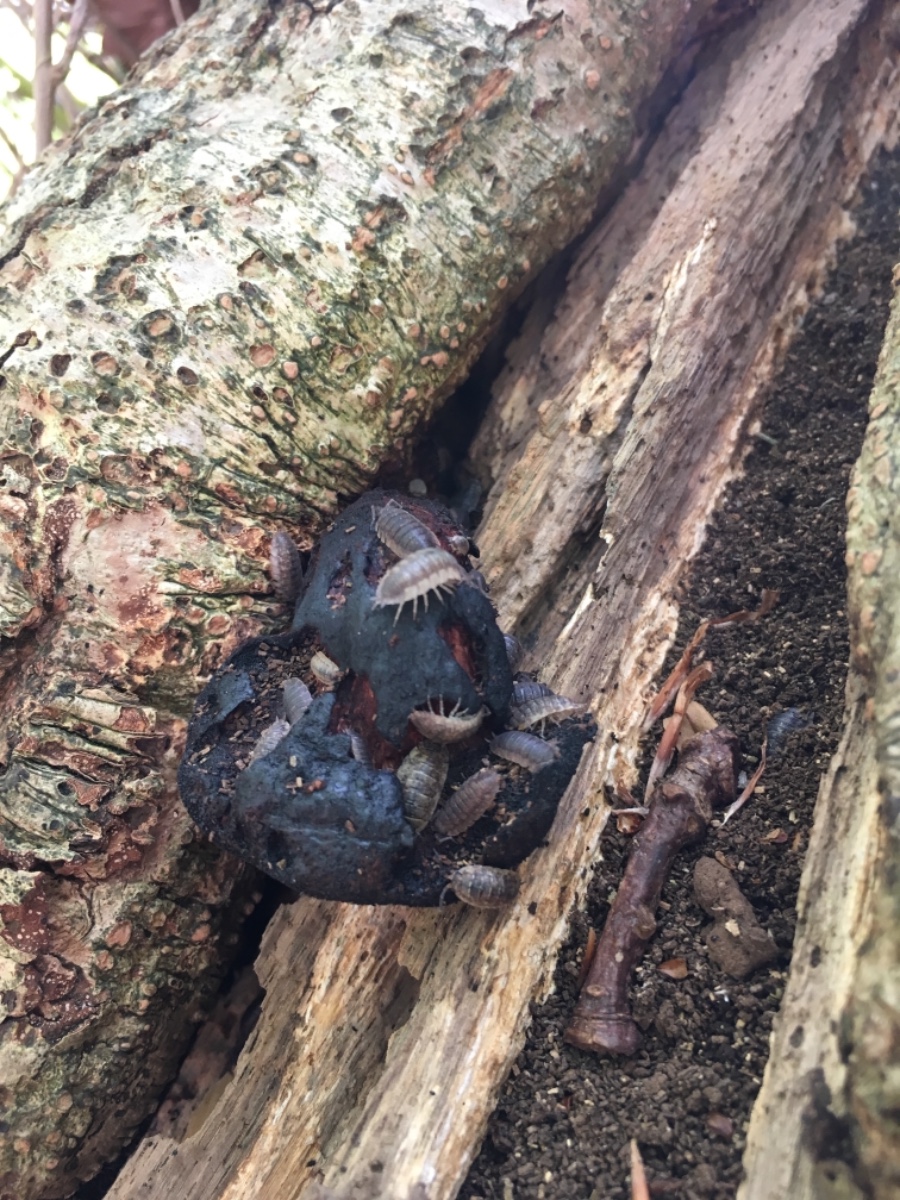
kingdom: Fungi
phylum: Basidiomycota
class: Agaricomycetes
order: Agaricales
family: Fistulinaceae
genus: Fistulina
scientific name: Fistulina hepatica
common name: oksetunge
